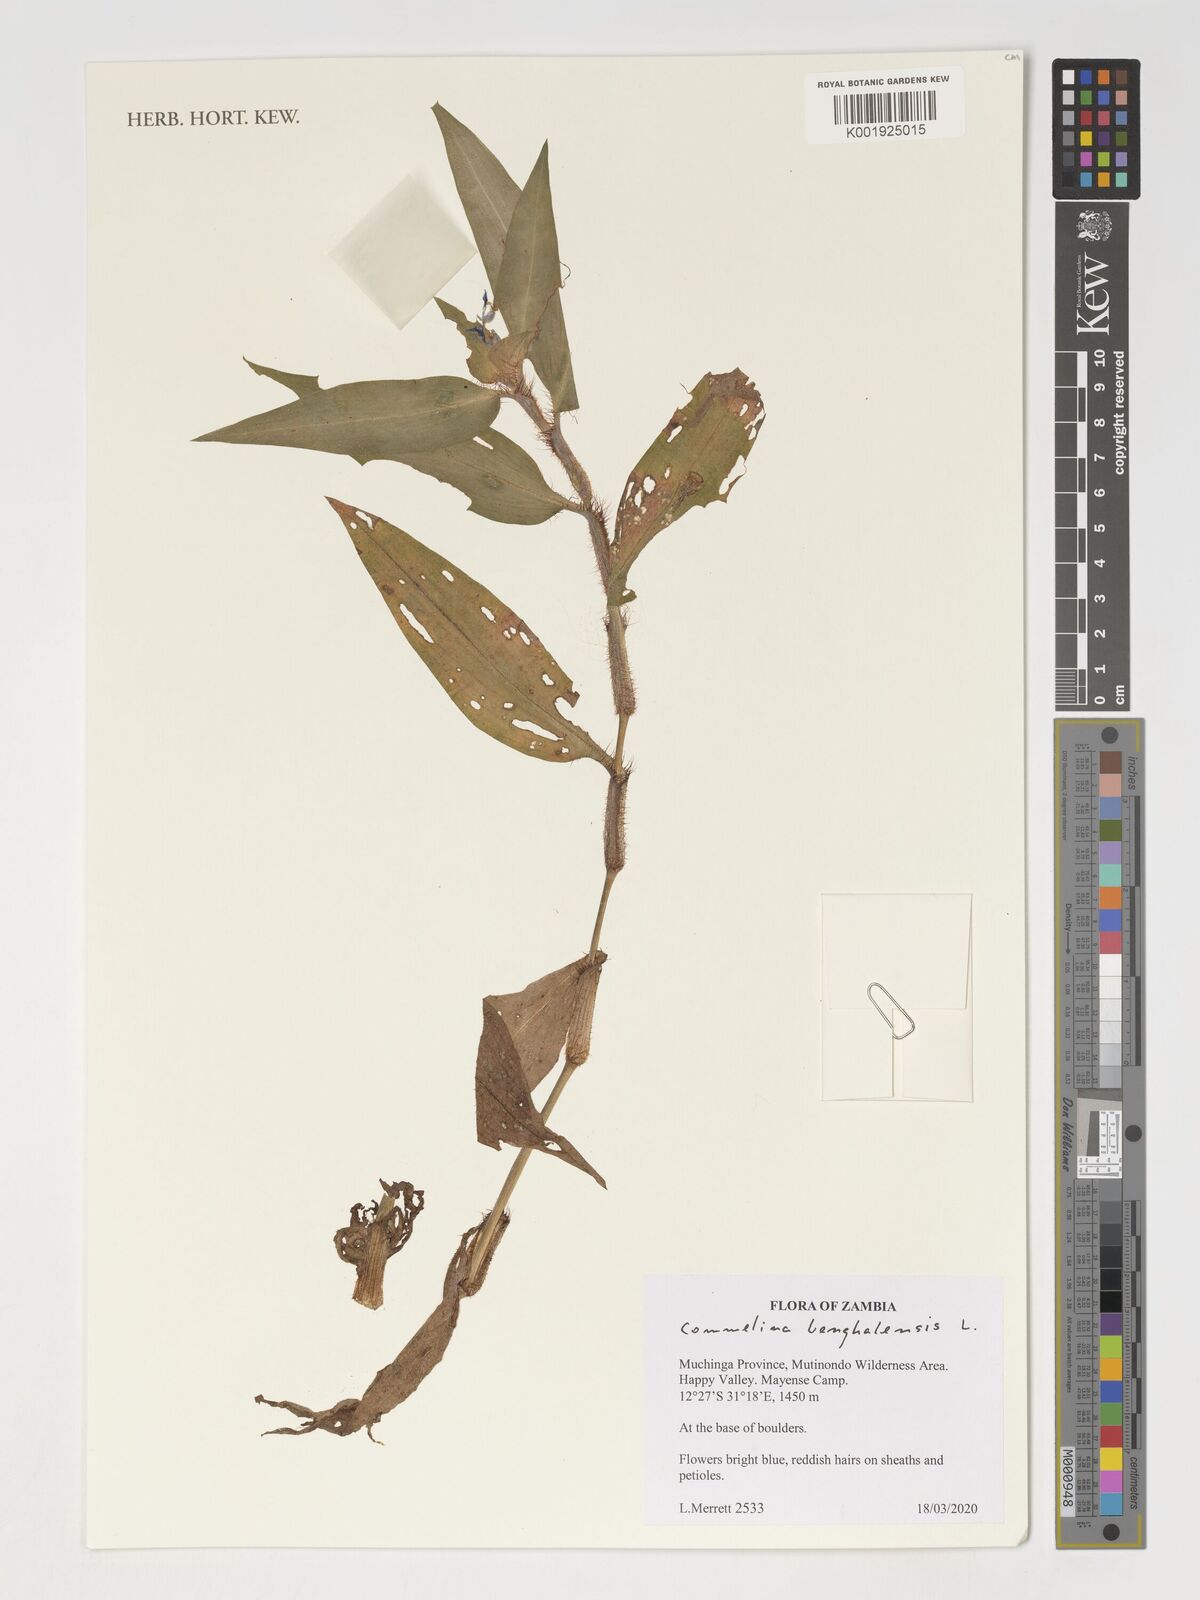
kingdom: Plantae
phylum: Tracheophyta
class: Liliopsida
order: Commelinales
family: Commelinaceae
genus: Commelina
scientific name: Commelina benghalensis
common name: Jio
